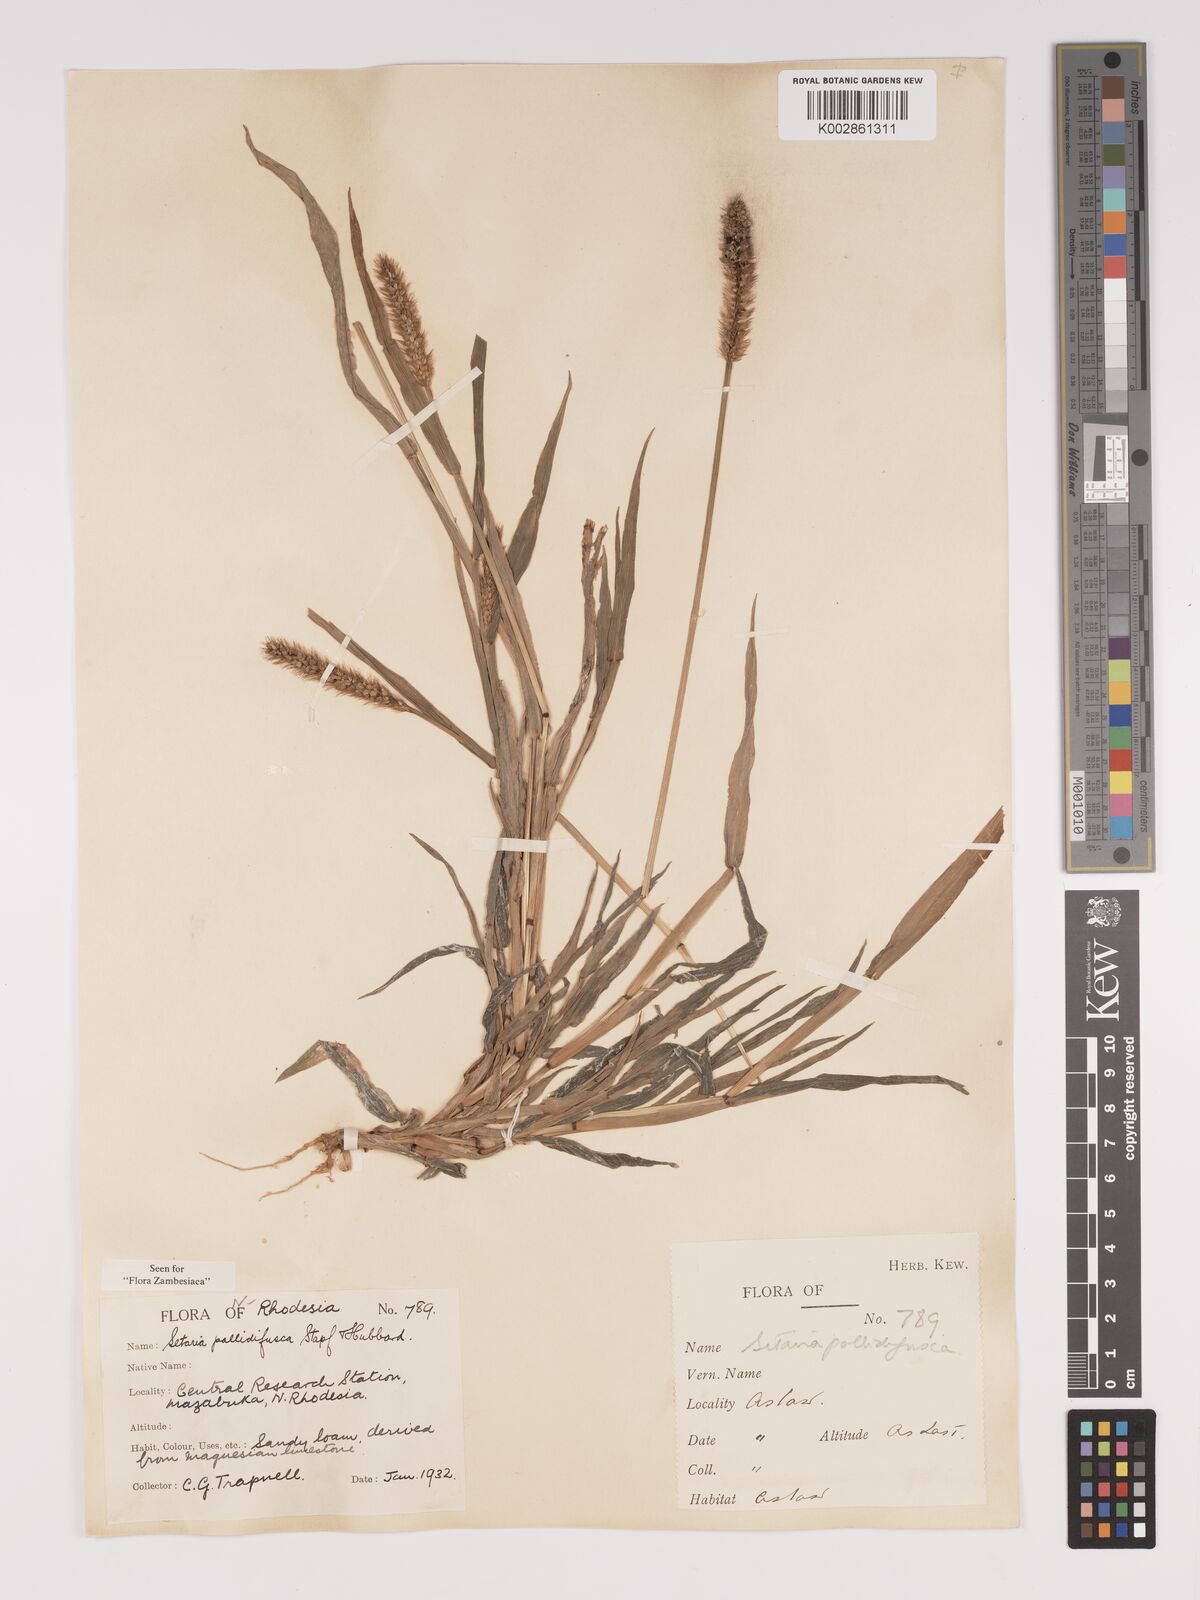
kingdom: Plantae
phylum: Tracheophyta
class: Liliopsida
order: Poales
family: Poaceae
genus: Setaria
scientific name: Setaria pumila
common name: Yellow bristle-grass
